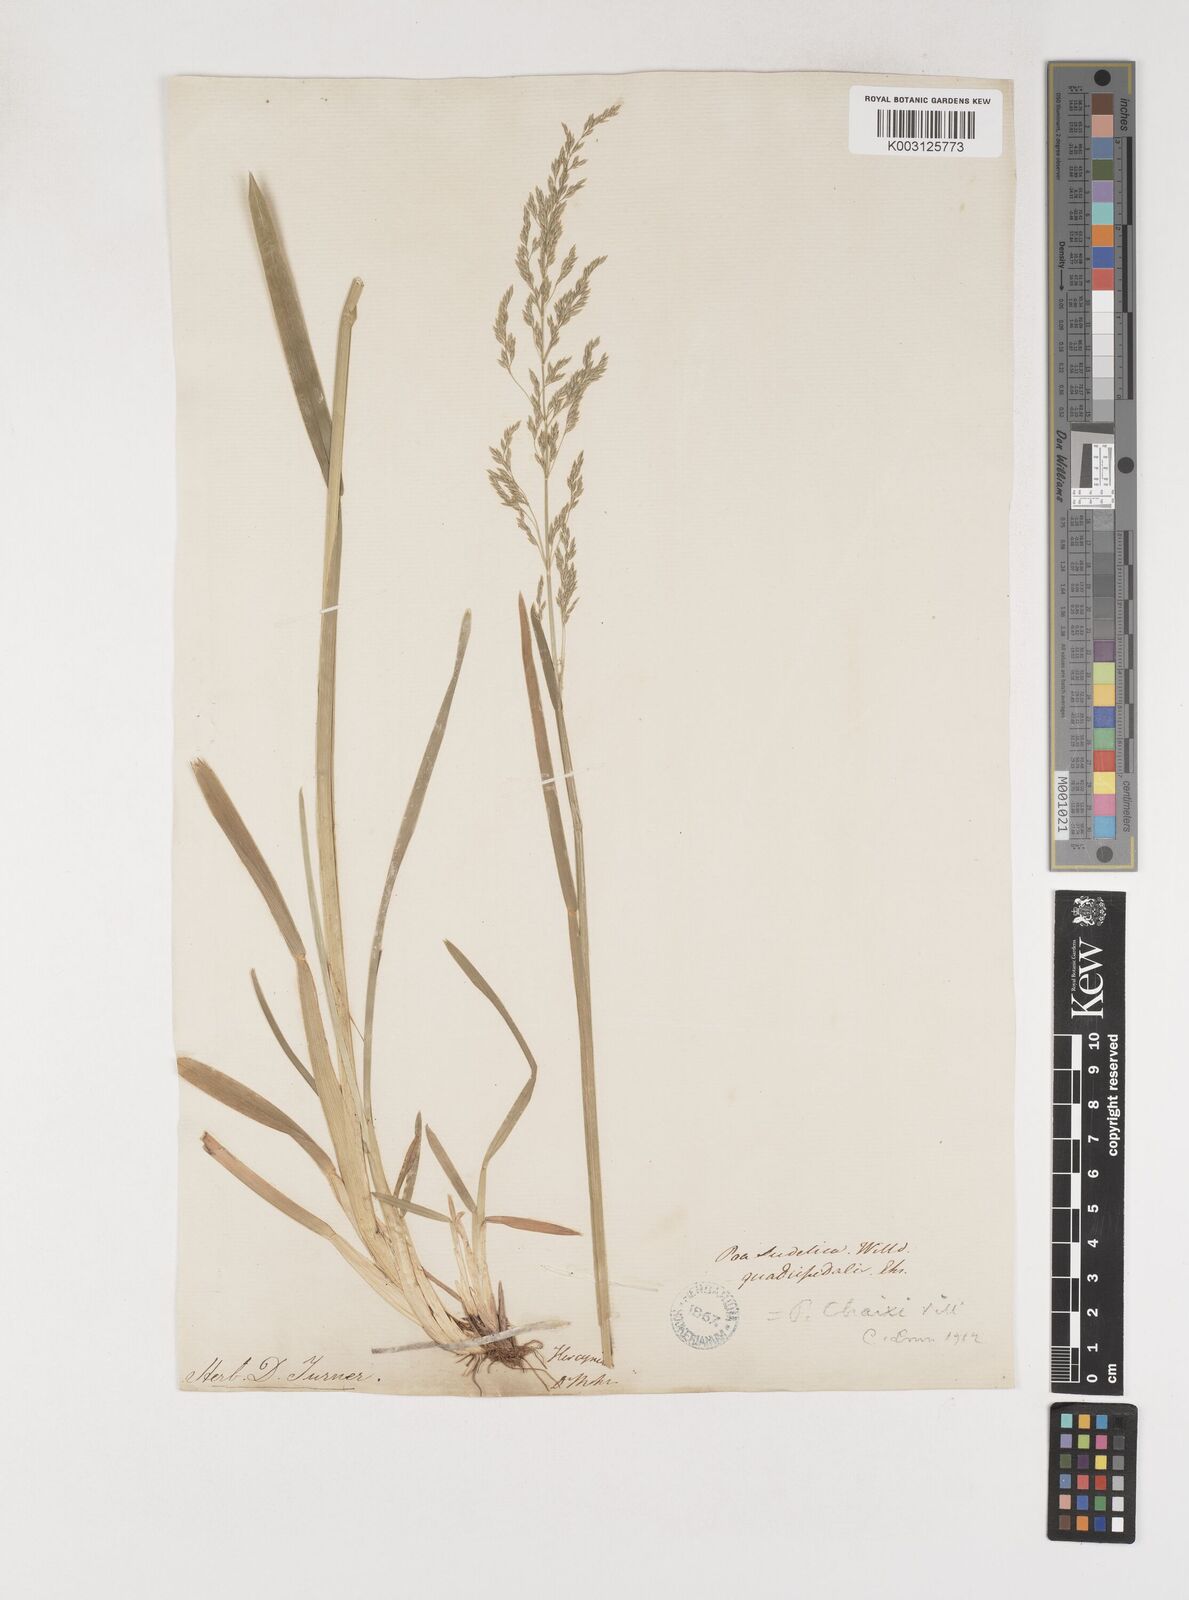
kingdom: Plantae
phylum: Tracheophyta
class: Liliopsida
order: Poales
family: Poaceae
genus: Poa
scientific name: Poa chaixii
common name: Broad-leaved meadow-grass
